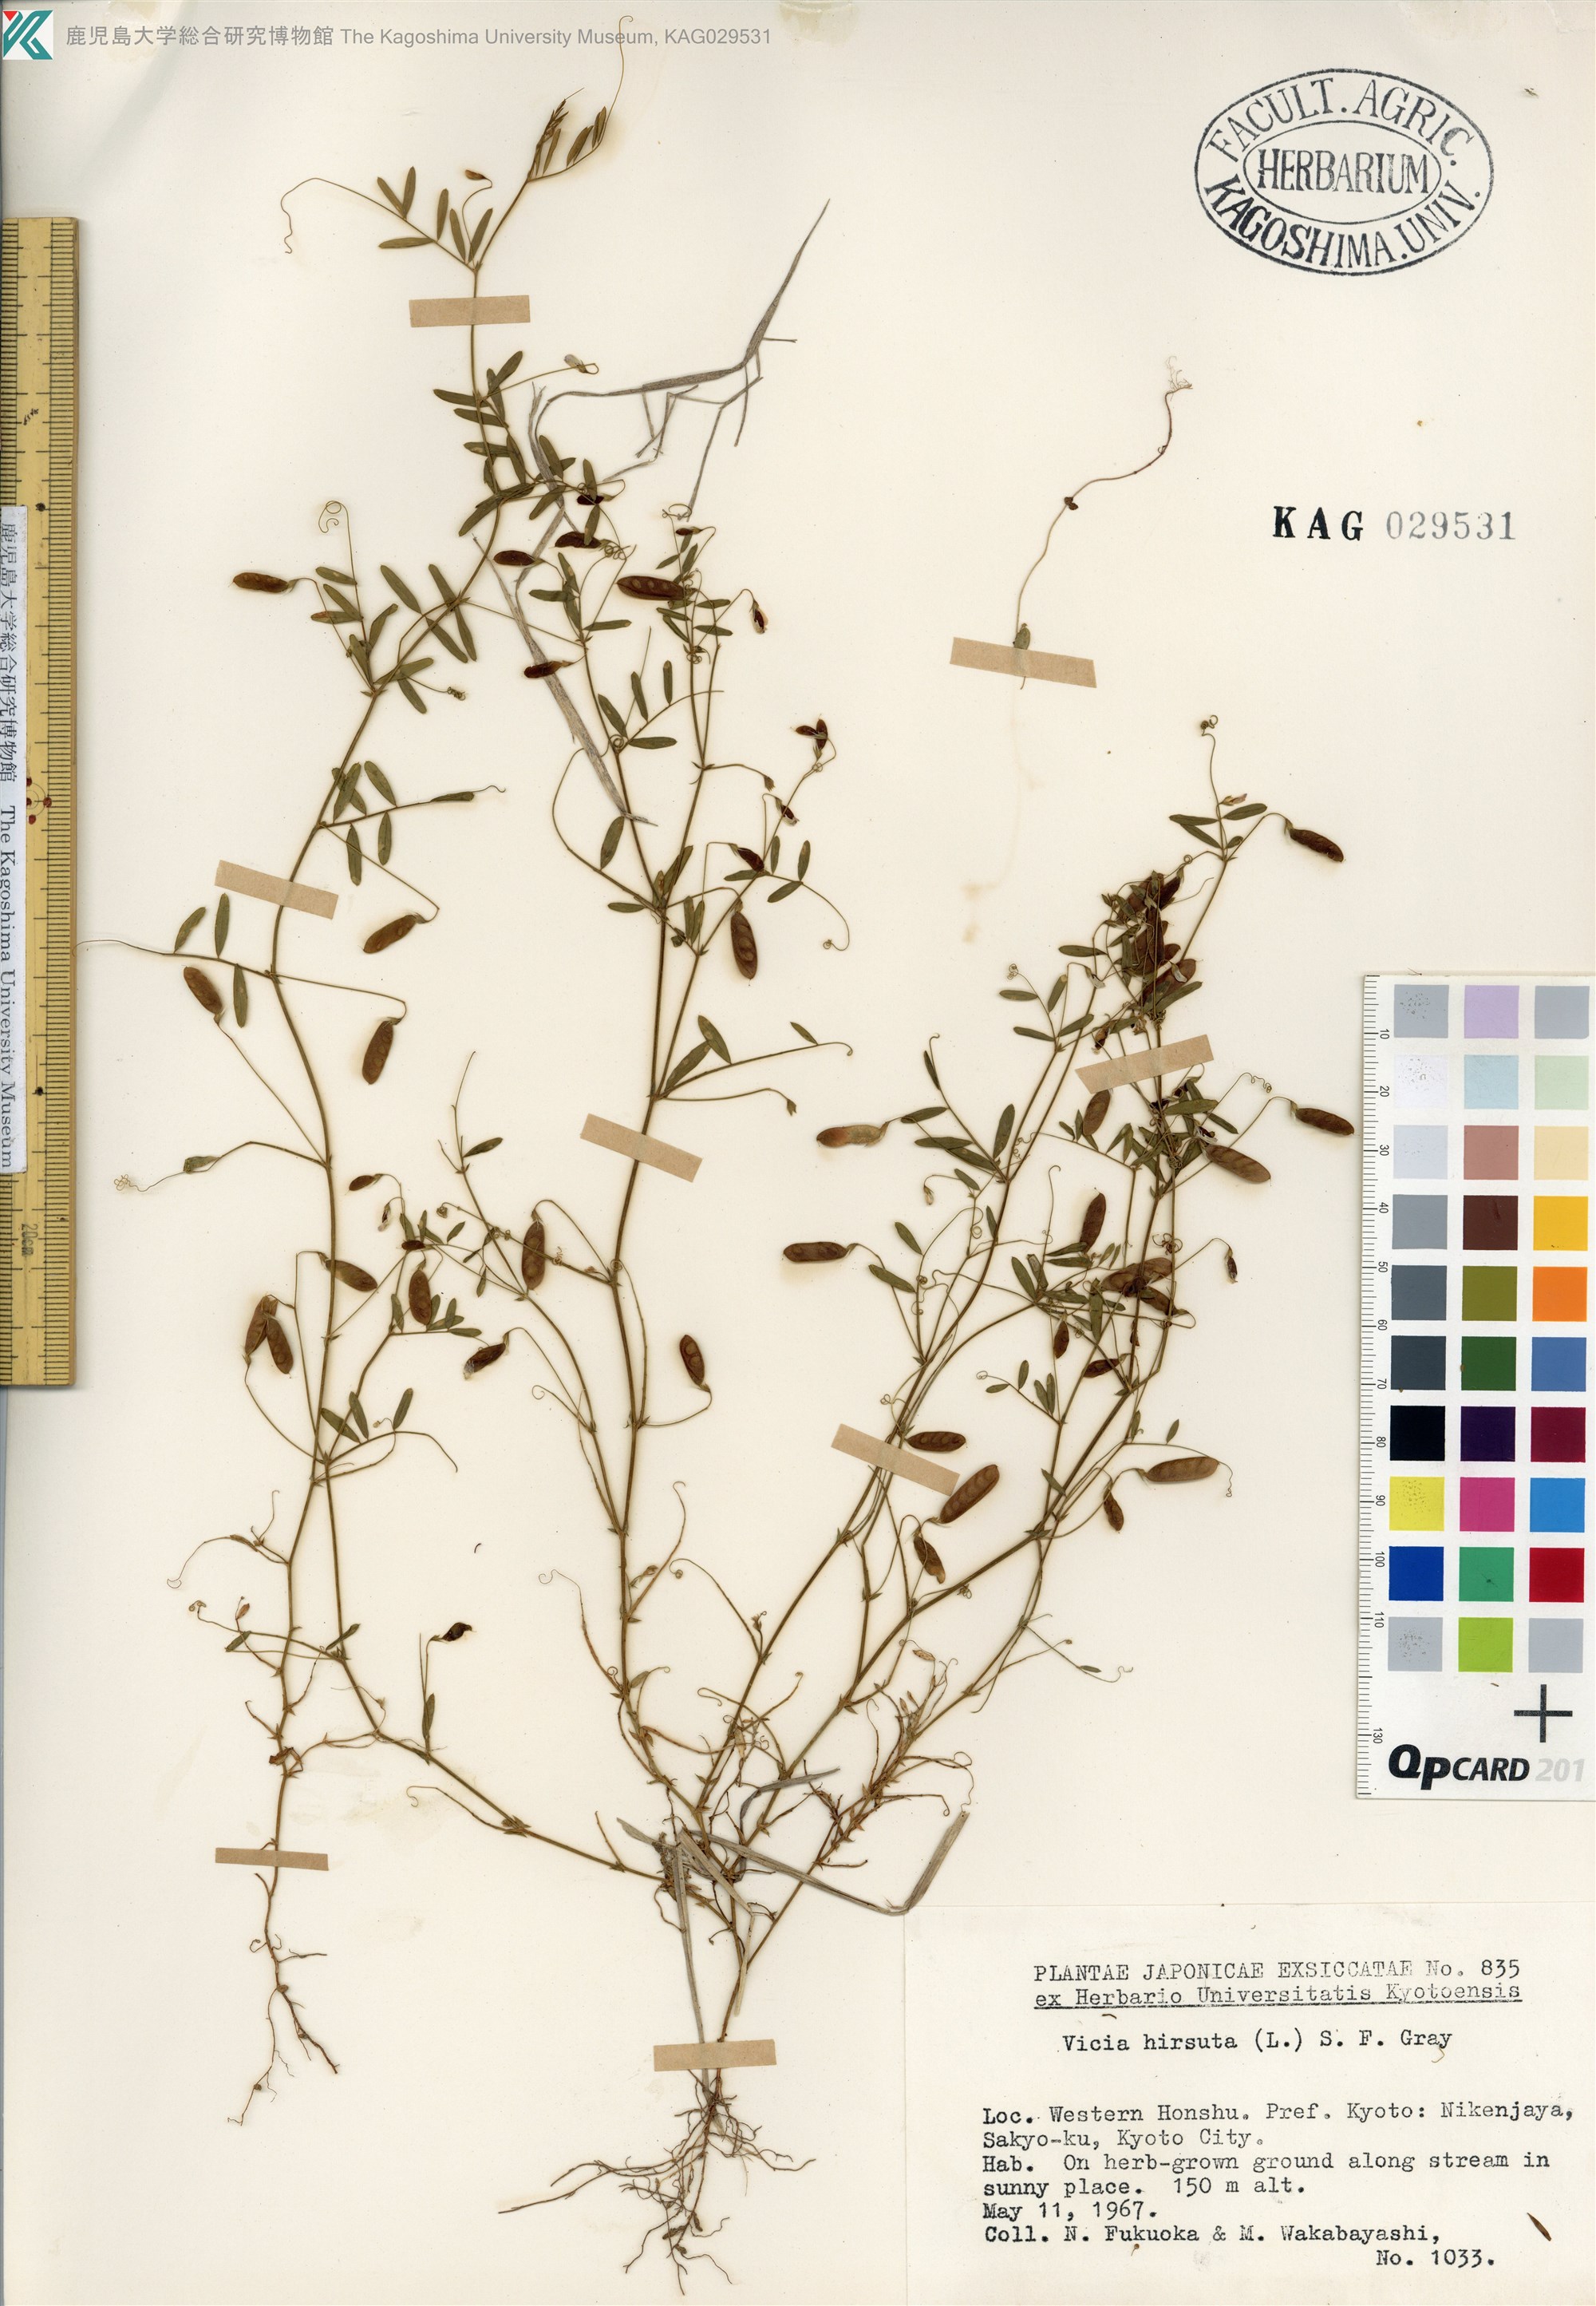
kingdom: Plantae
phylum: Tracheophyta
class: Magnoliopsida
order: Fabales
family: Fabaceae
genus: Vicia
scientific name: Vicia hirsuta
